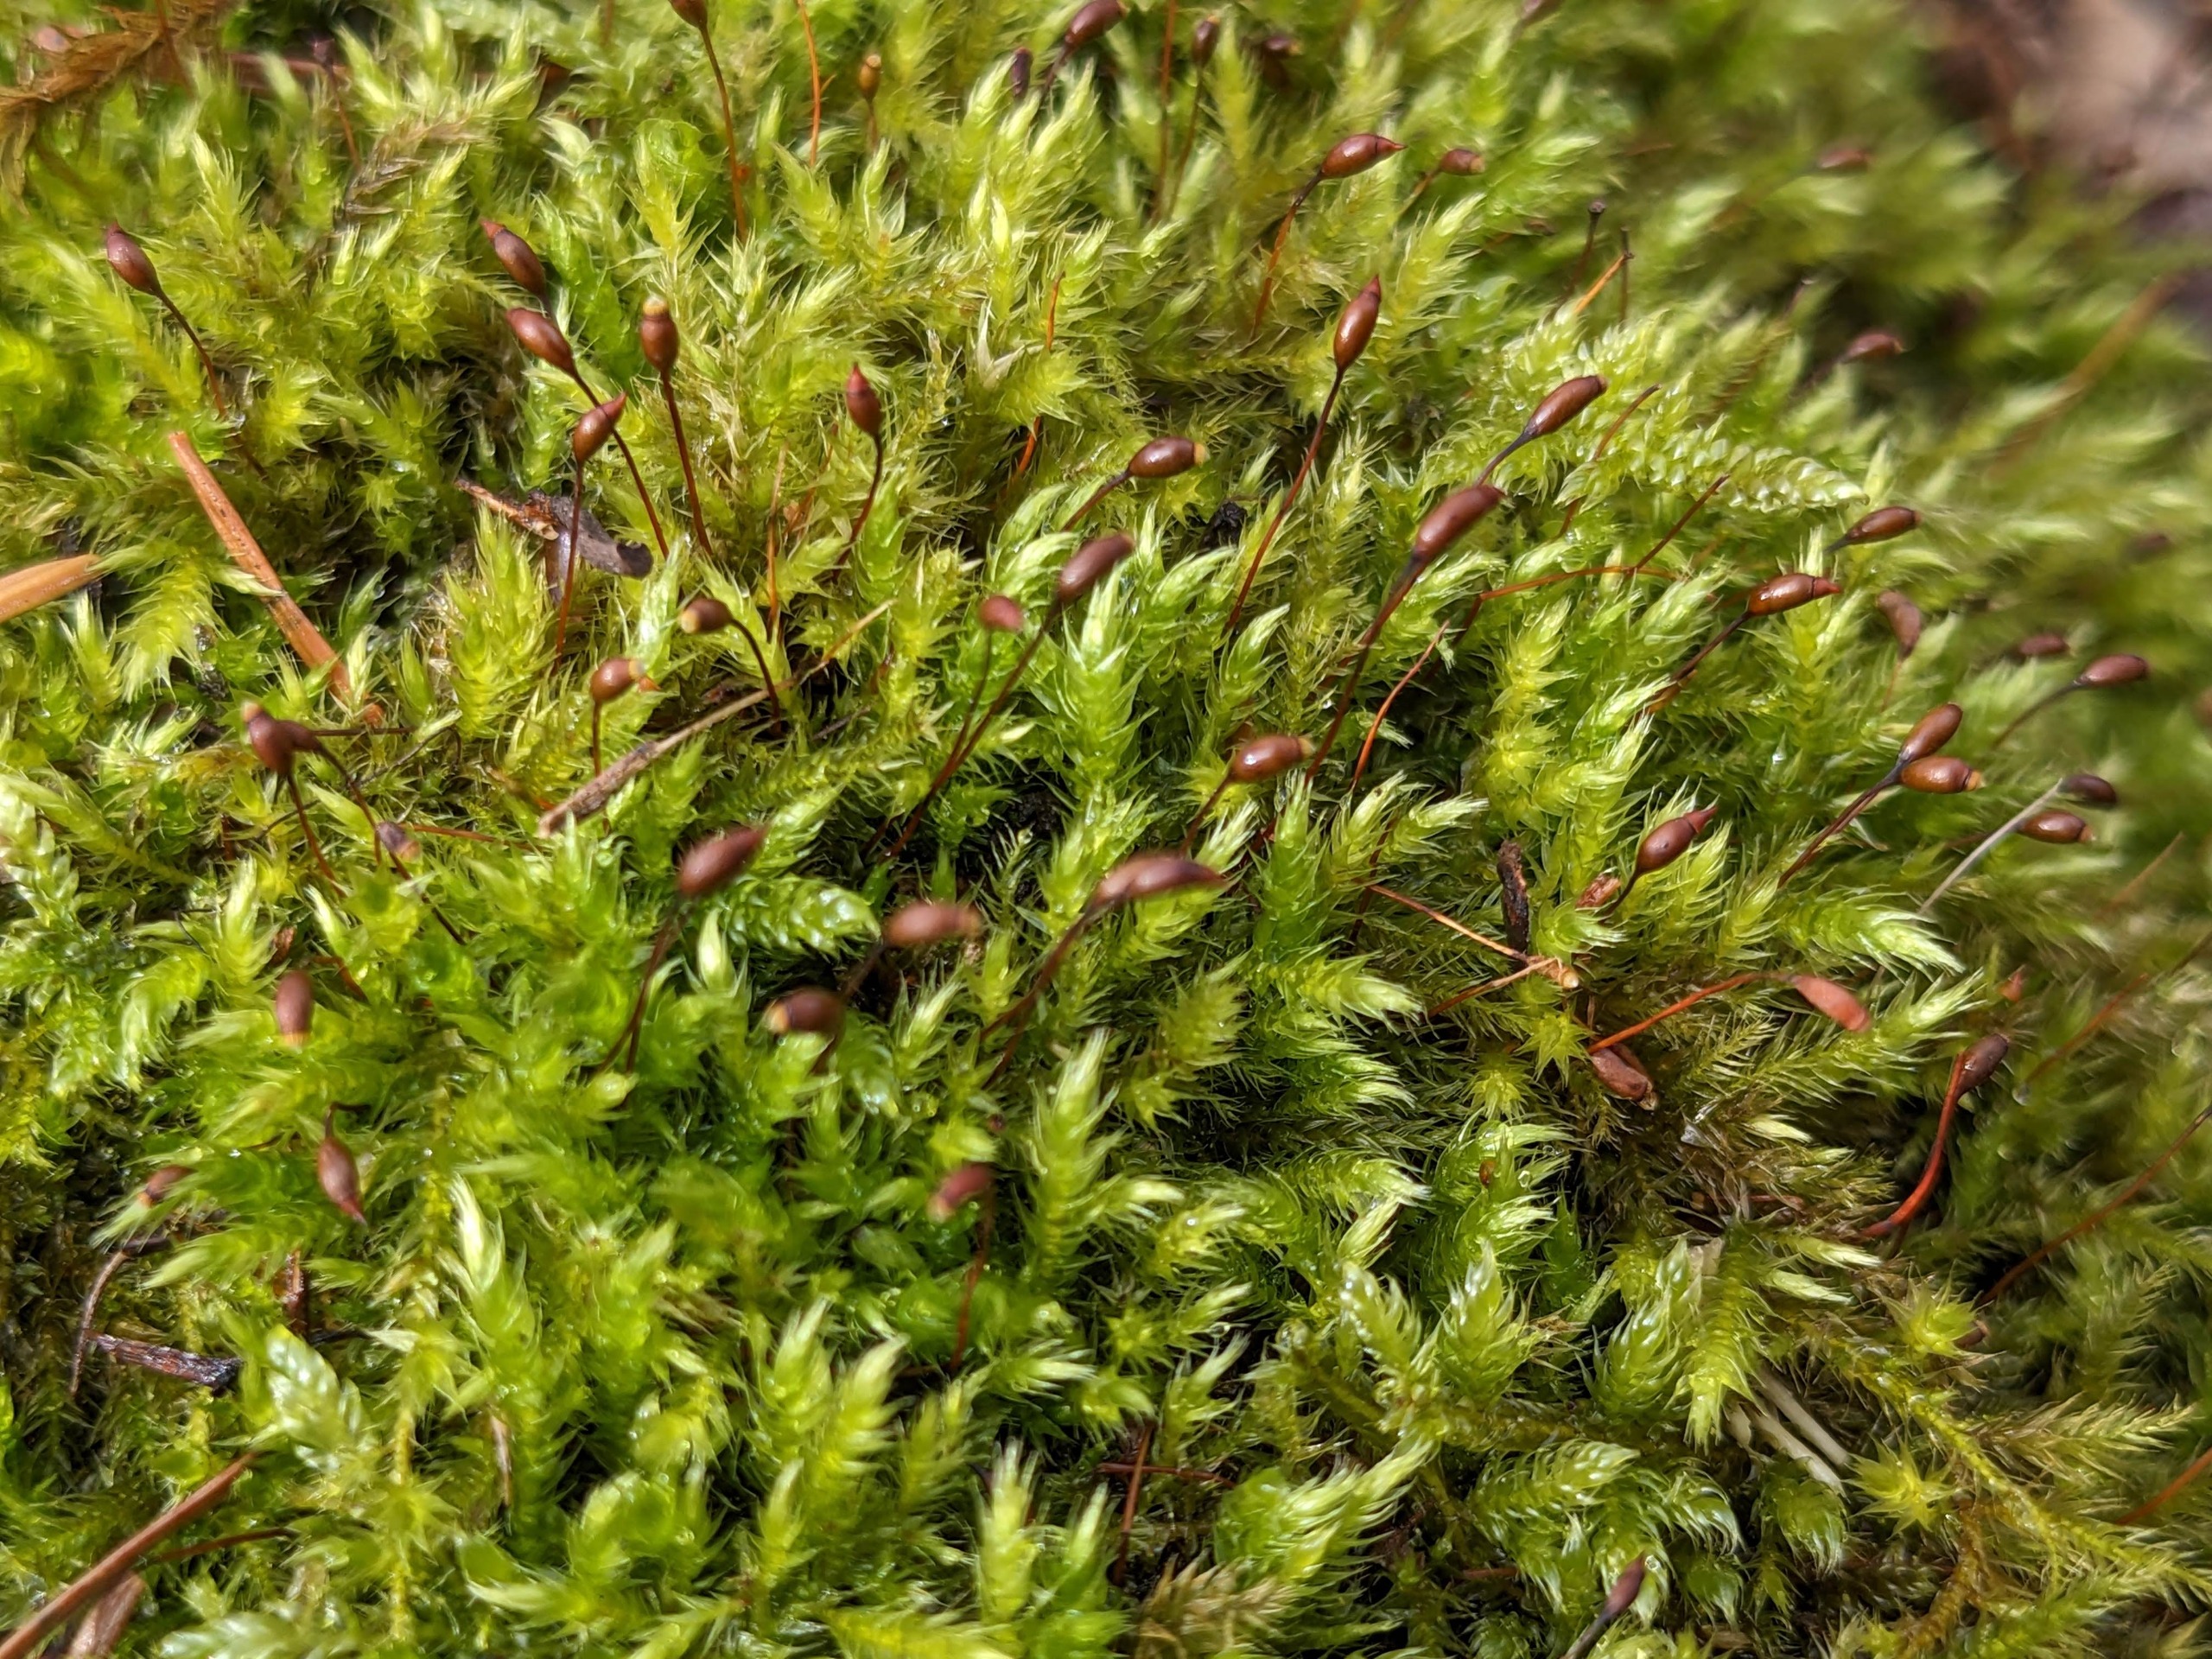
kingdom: Plantae
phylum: Bryophyta
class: Bryopsida
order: Hypnales
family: Brachytheciaceae
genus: Sciuro-hypnum
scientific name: Sciuro-hypnum populeum
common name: Park-kortkapsel
